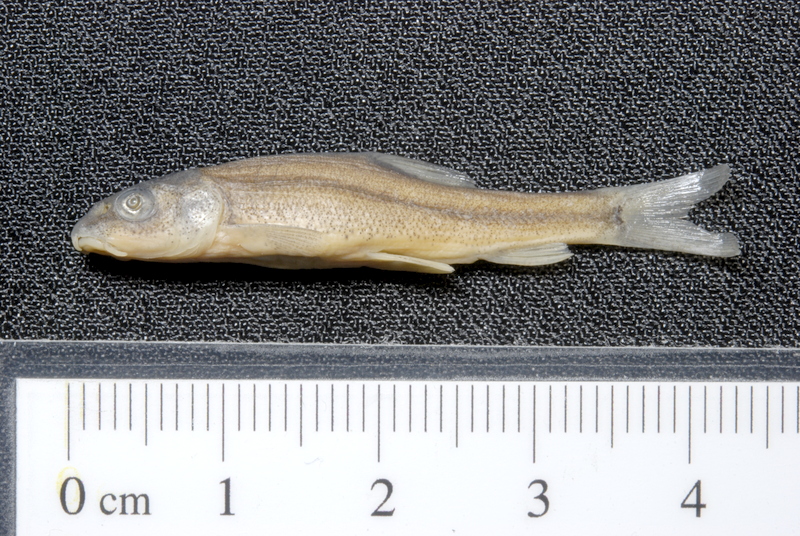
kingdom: Animalia
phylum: Chordata
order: Cypriniformes
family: Cyprinidae
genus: Barbus
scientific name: Barbus barbus
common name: Barbel
